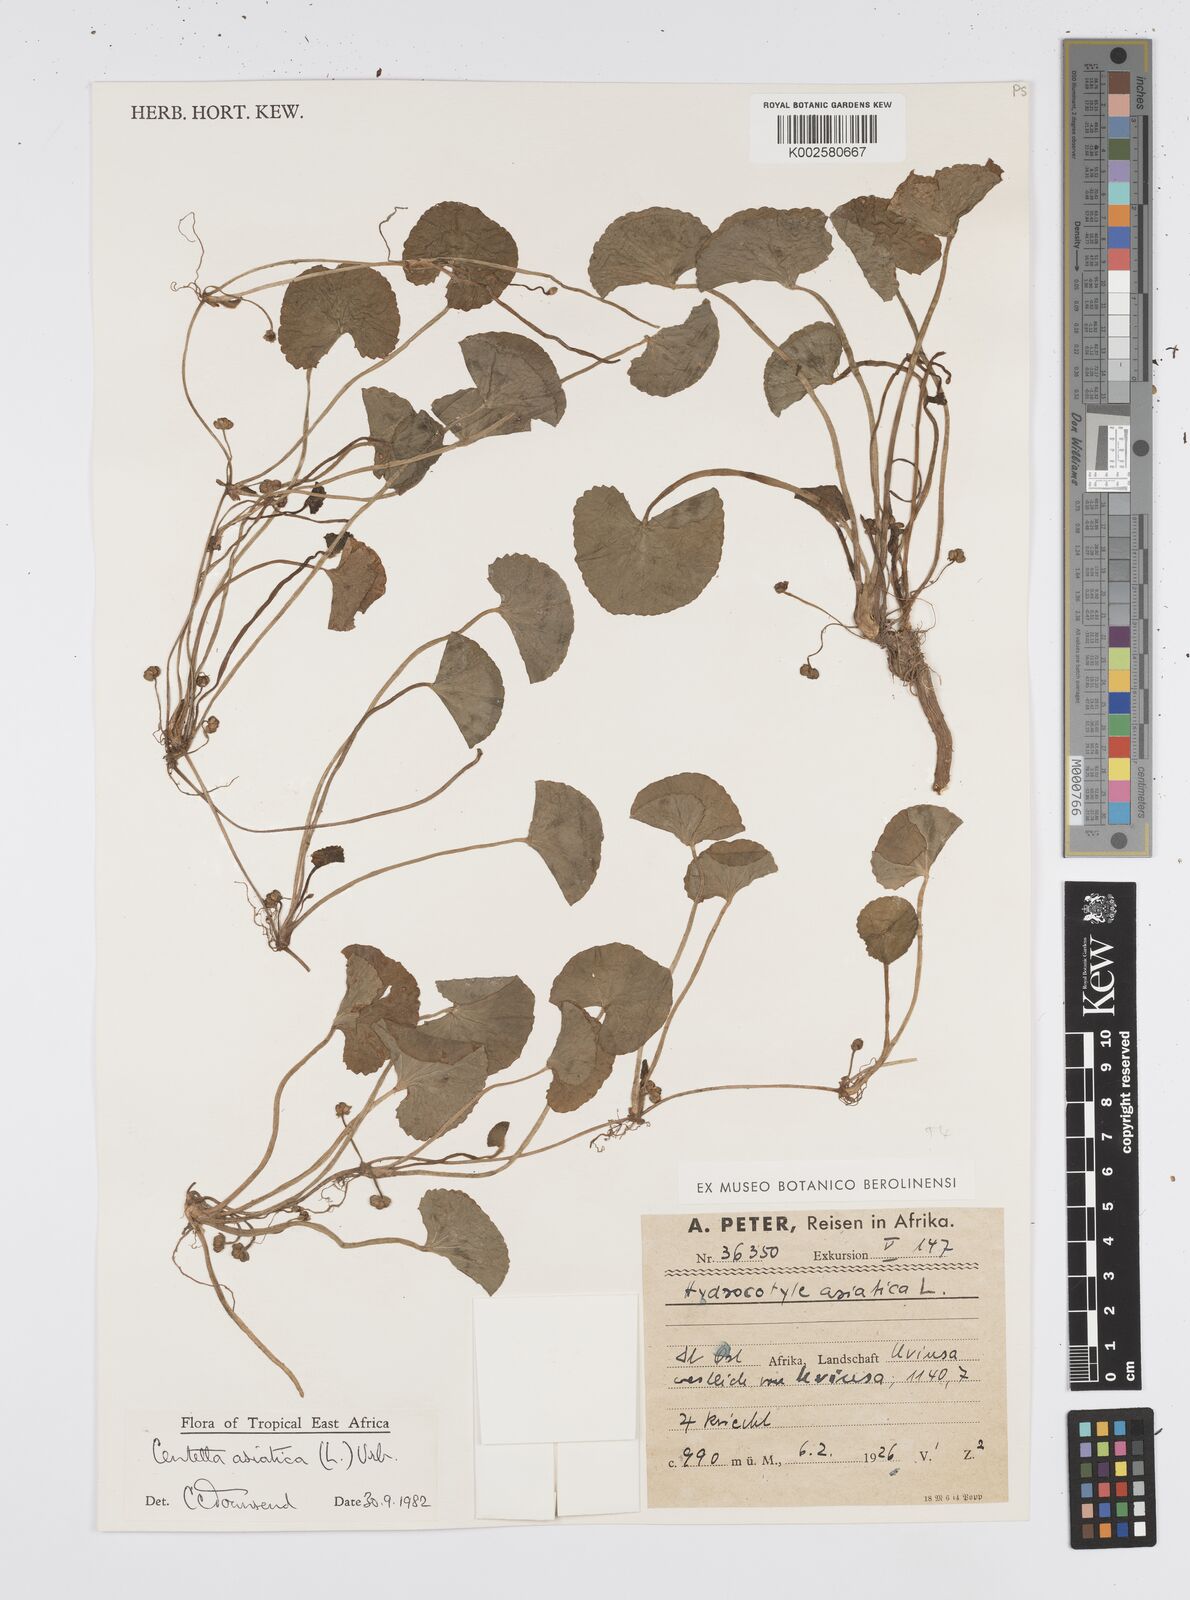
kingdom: Plantae
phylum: Tracheophyta
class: Magnoliopsida
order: Apiales
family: Apiaceae
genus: Centella
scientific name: Centella asiatica
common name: Spadeleaf
